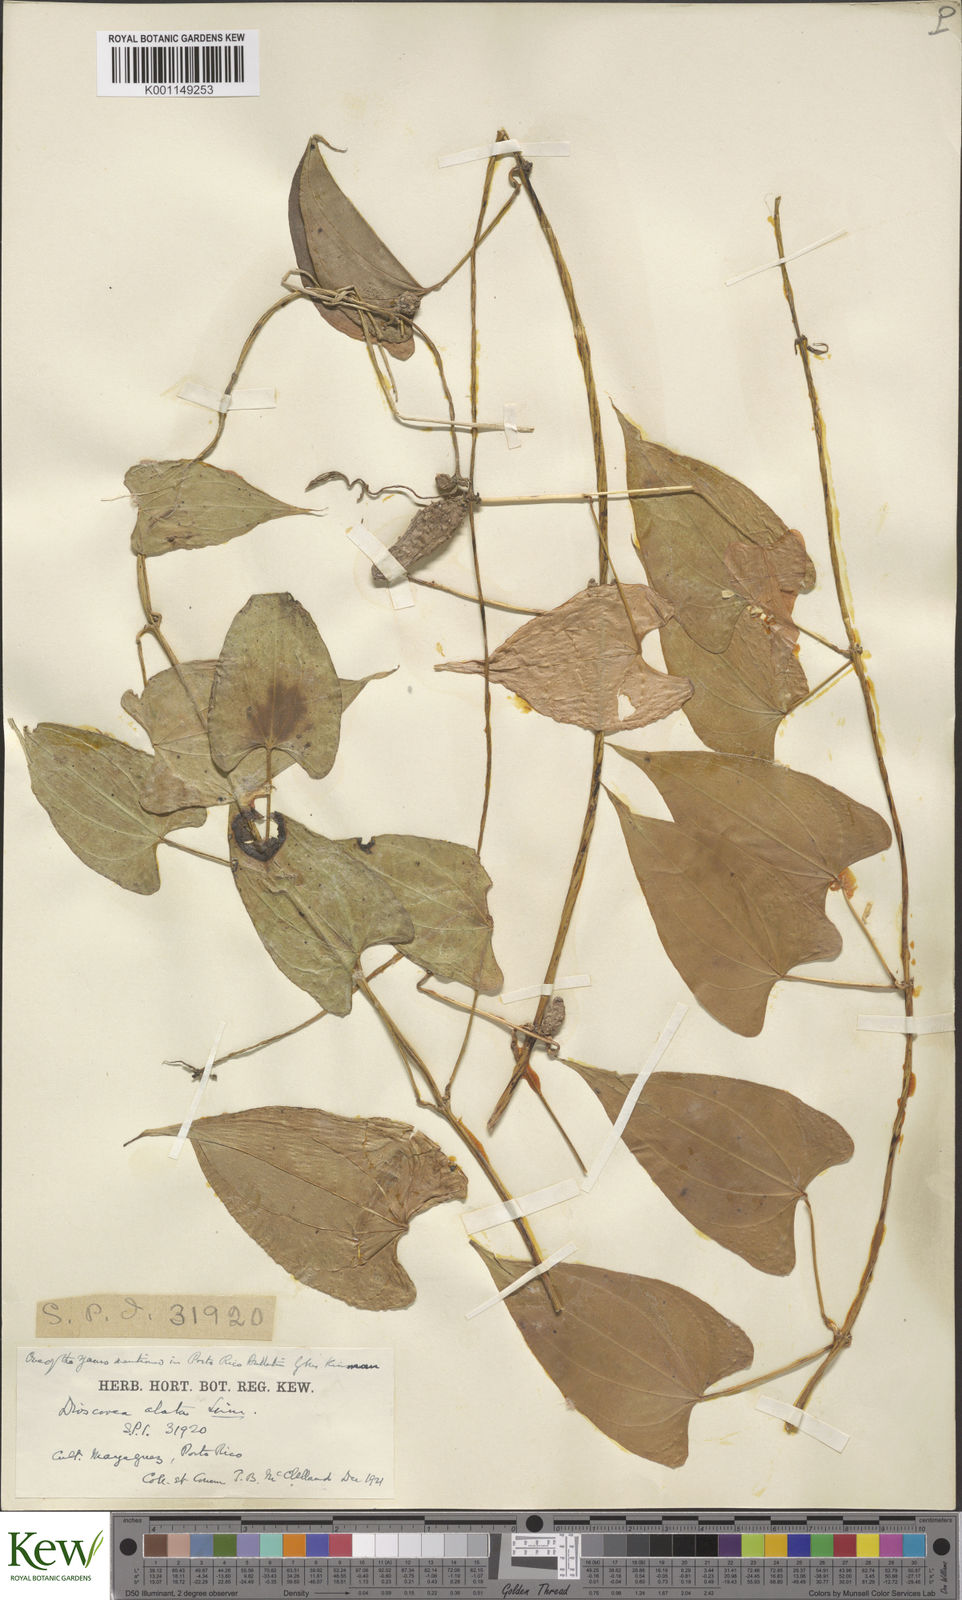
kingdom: Plantae
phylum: Tracheophyta
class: Liliopsida
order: Dioscoreales
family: Dioscoreaceae
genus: Dioscorea
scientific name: Dioscorea alata
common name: Water yam
